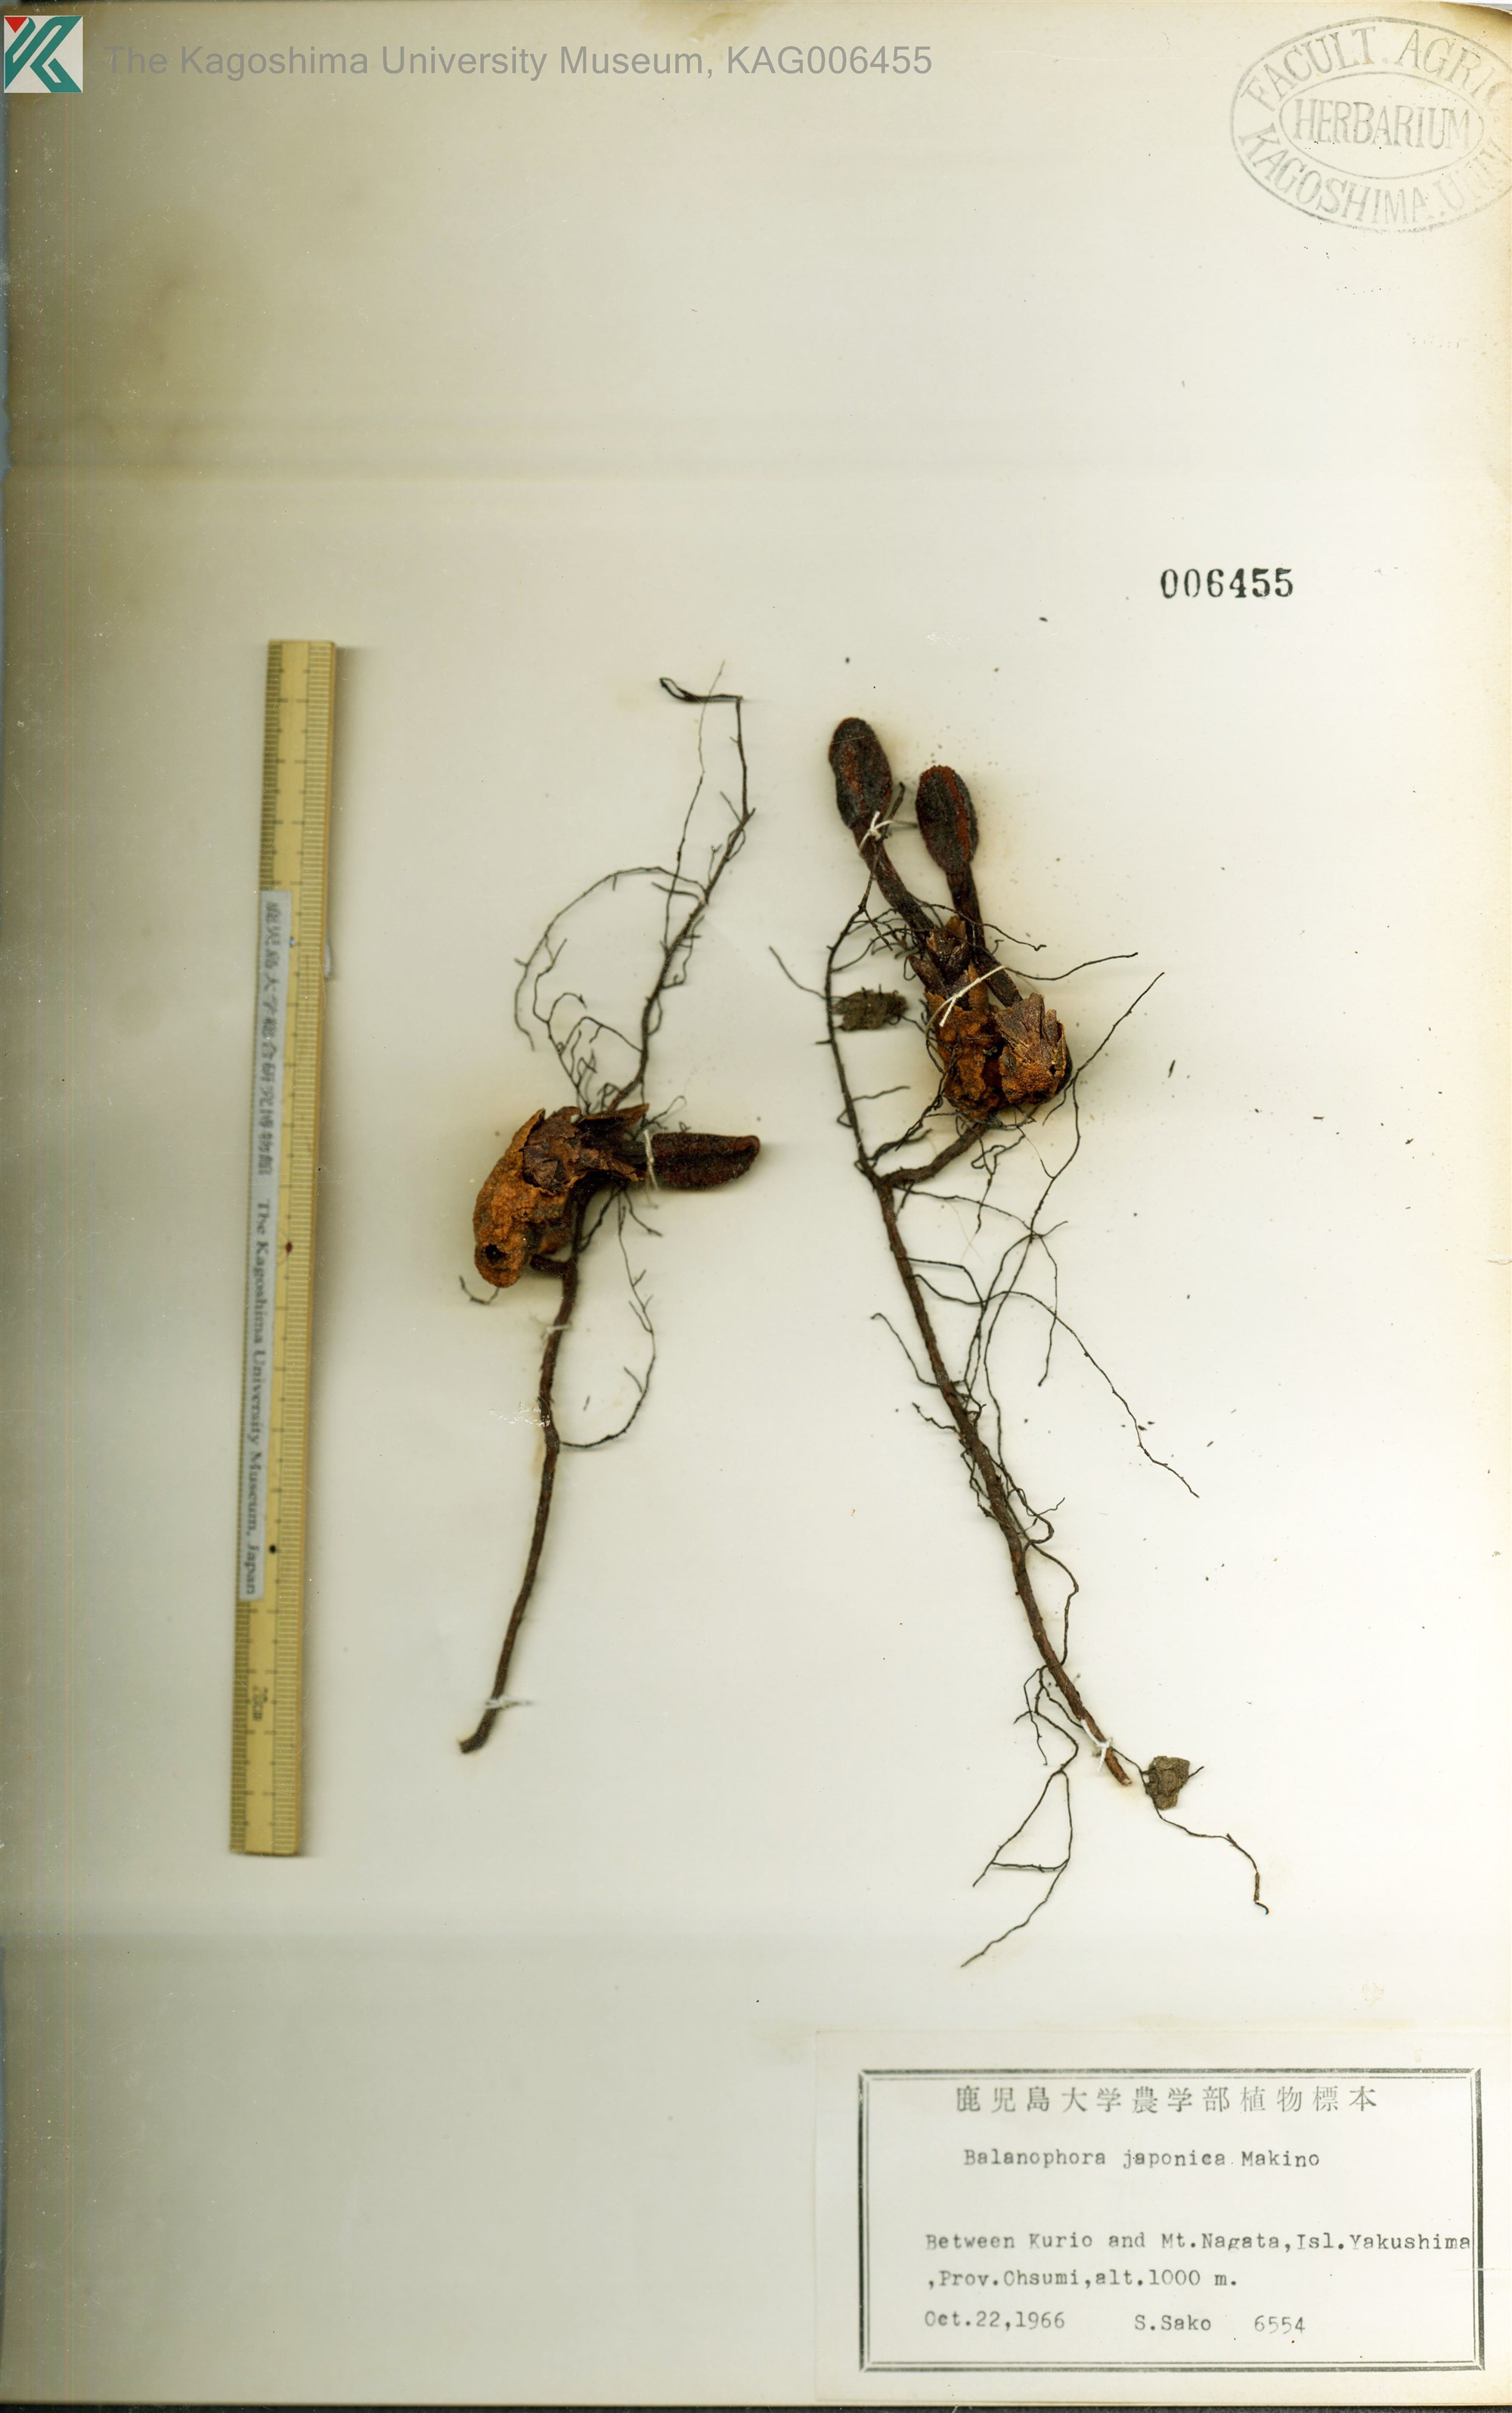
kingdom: Plantae
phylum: Tracheophyta
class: Magnoliopsida
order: Santalales
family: Balanophoraceae
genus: Balanophora
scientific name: Balanophora japonica
